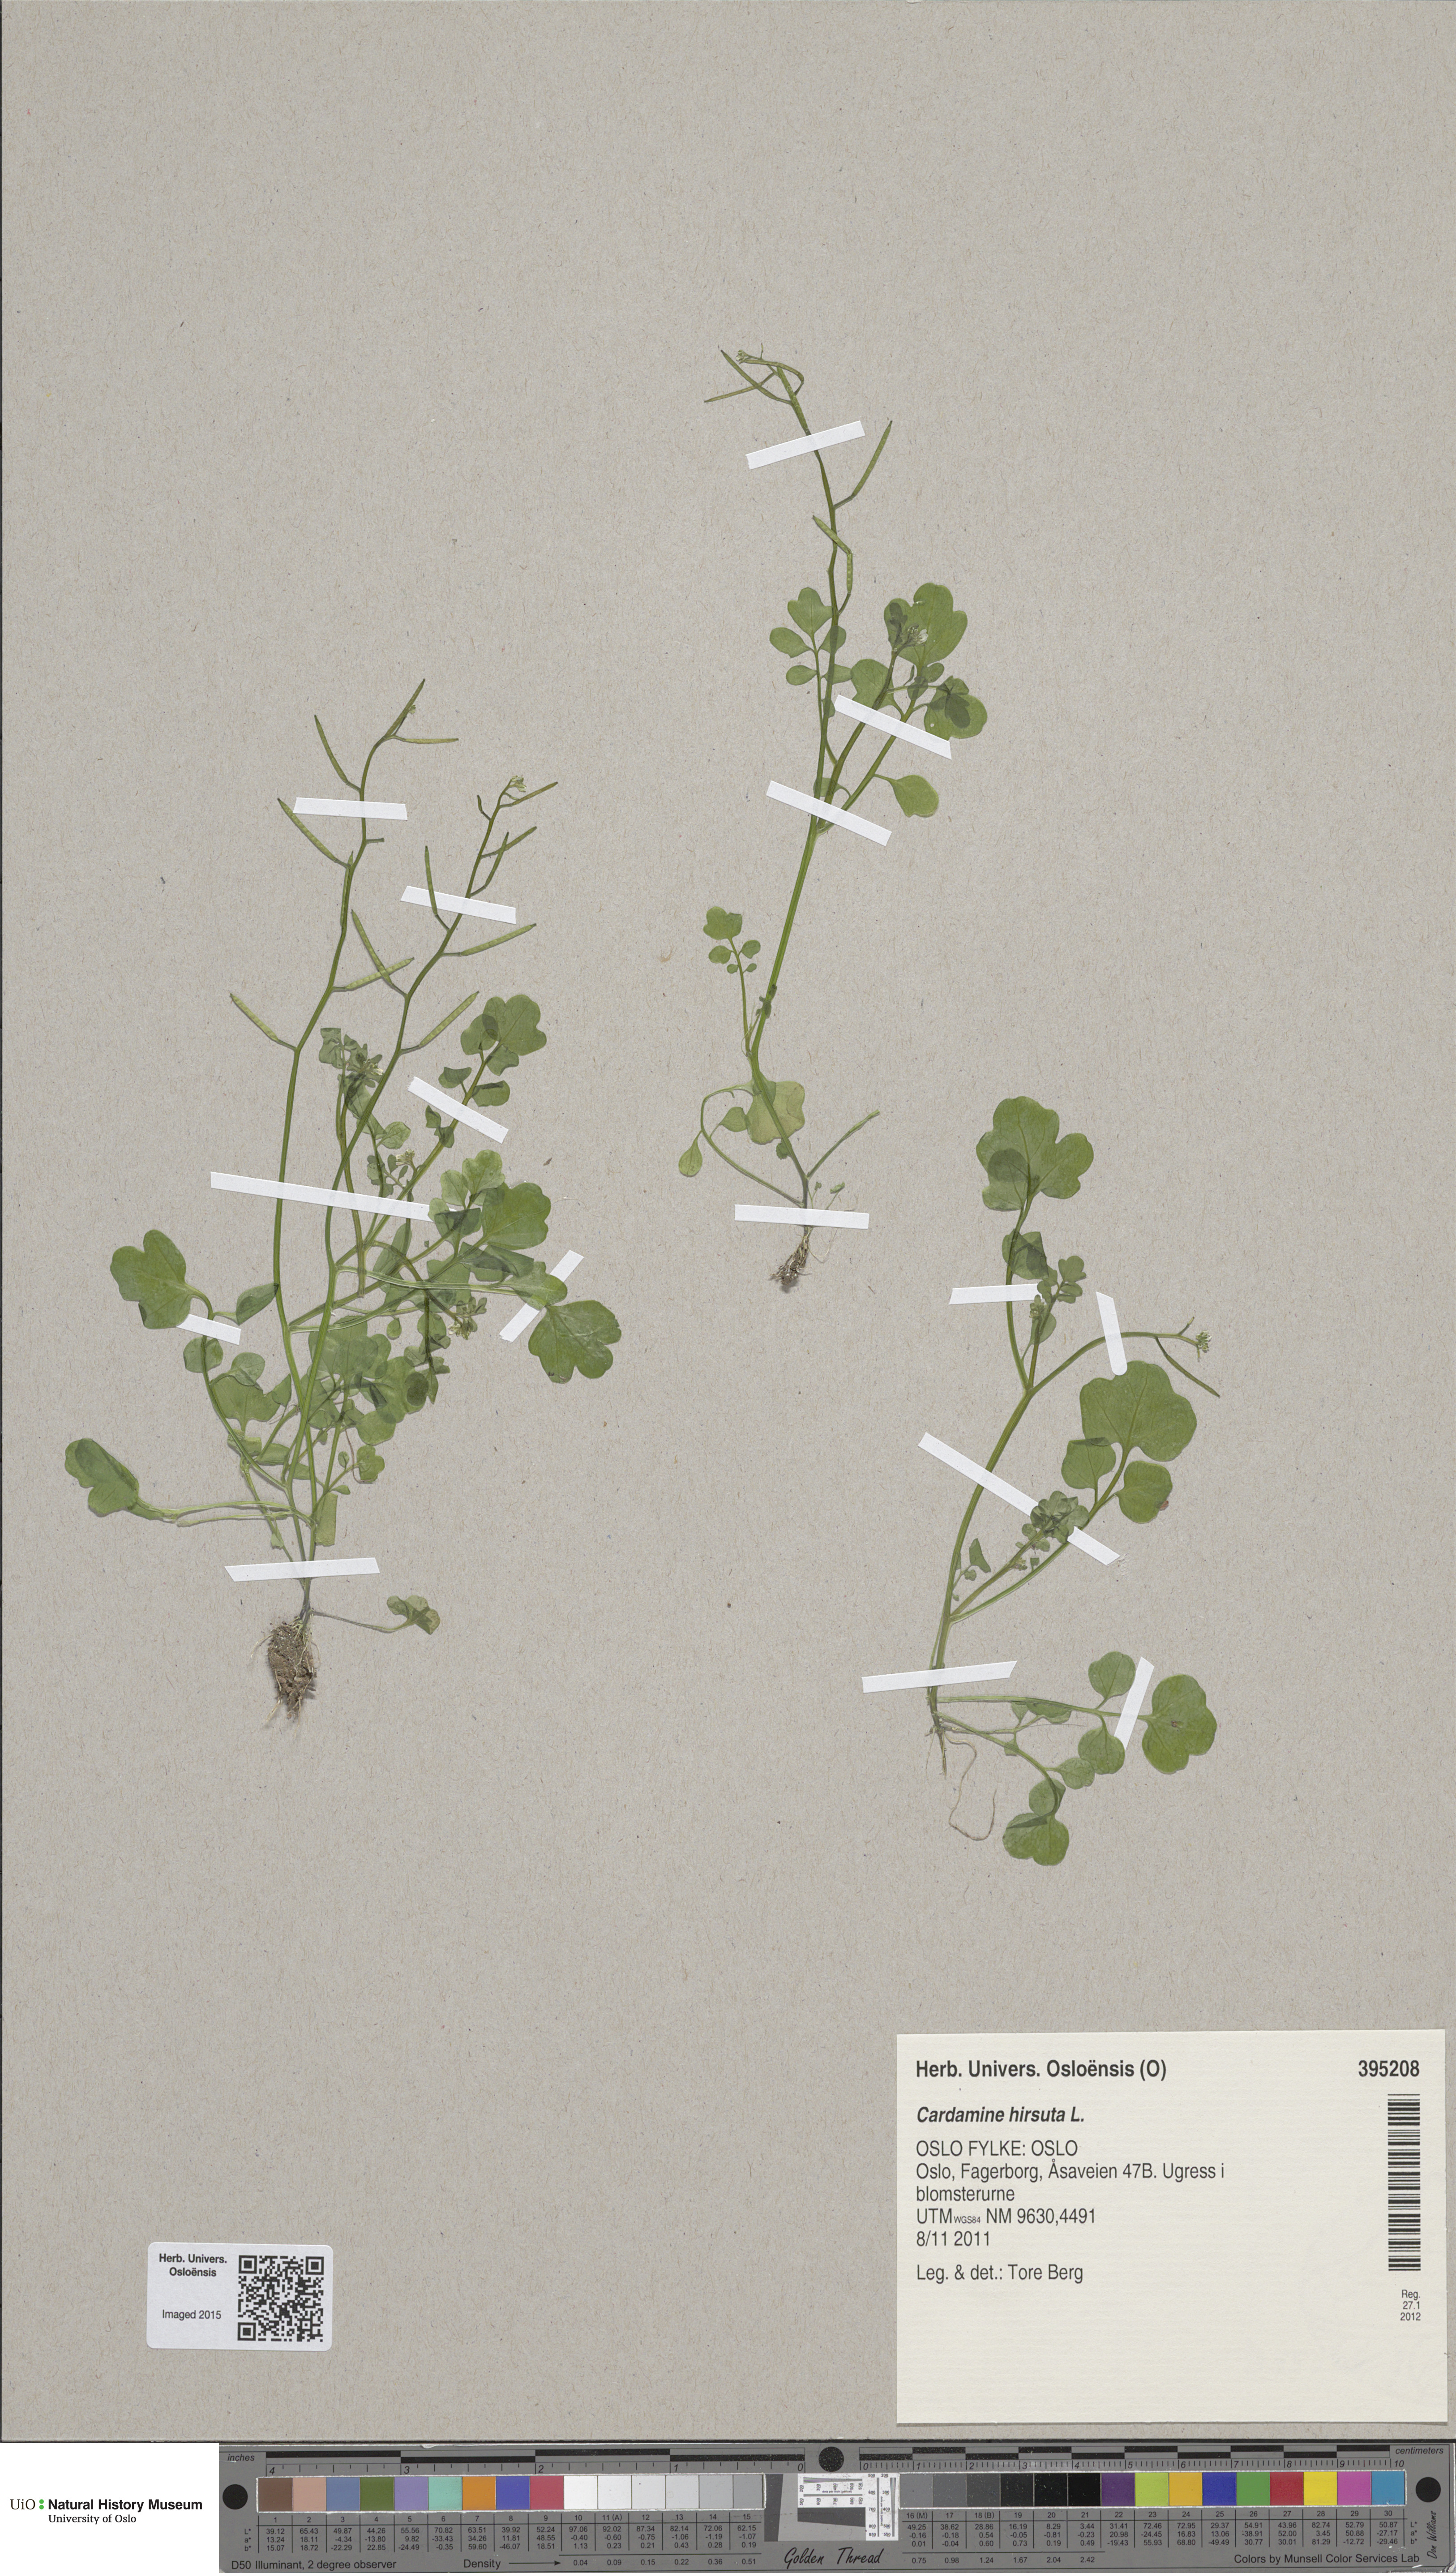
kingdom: Plantae
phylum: Tracheophyta
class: Magnoliopsida
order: Brassicales
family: Brassicaceae
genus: Cardamine
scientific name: Cardamine hirsuta
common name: Hairy bittercress
